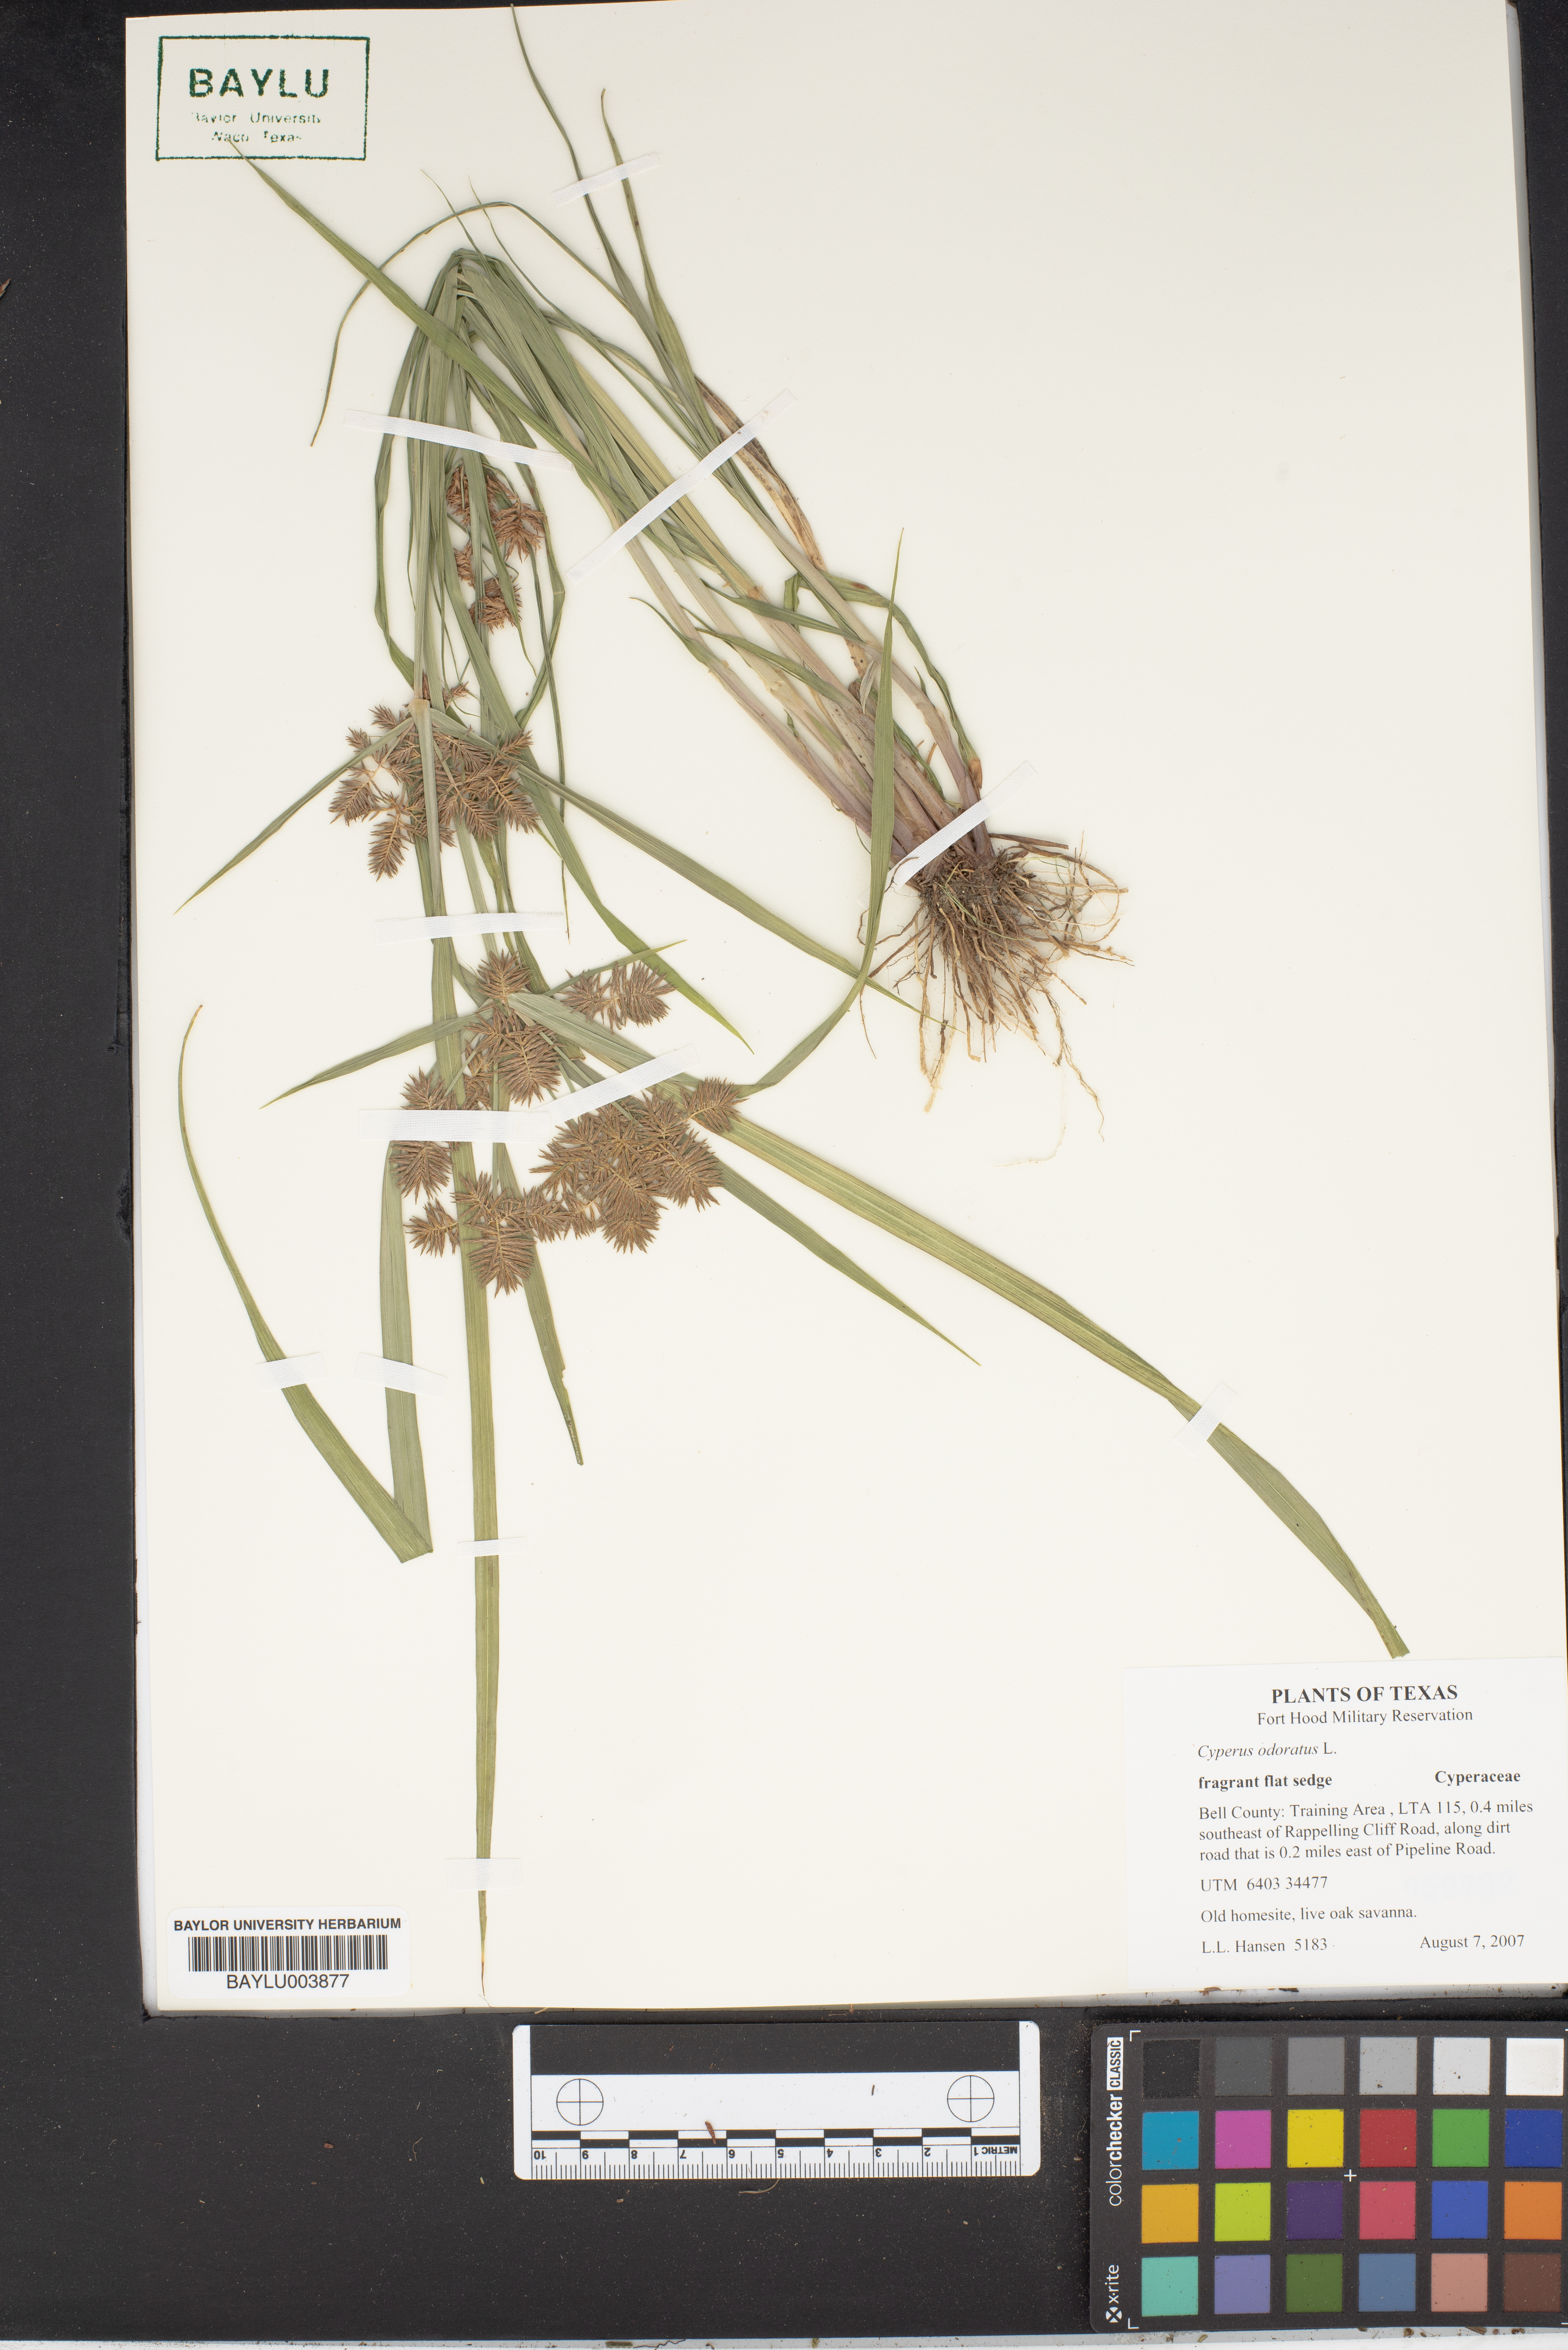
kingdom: Plantae
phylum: Tracheophyta
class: Liliopsida
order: Poales
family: Cyperaceae
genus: Cyperus
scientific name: Cyperus odoratus
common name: Fragrant flatsedge
